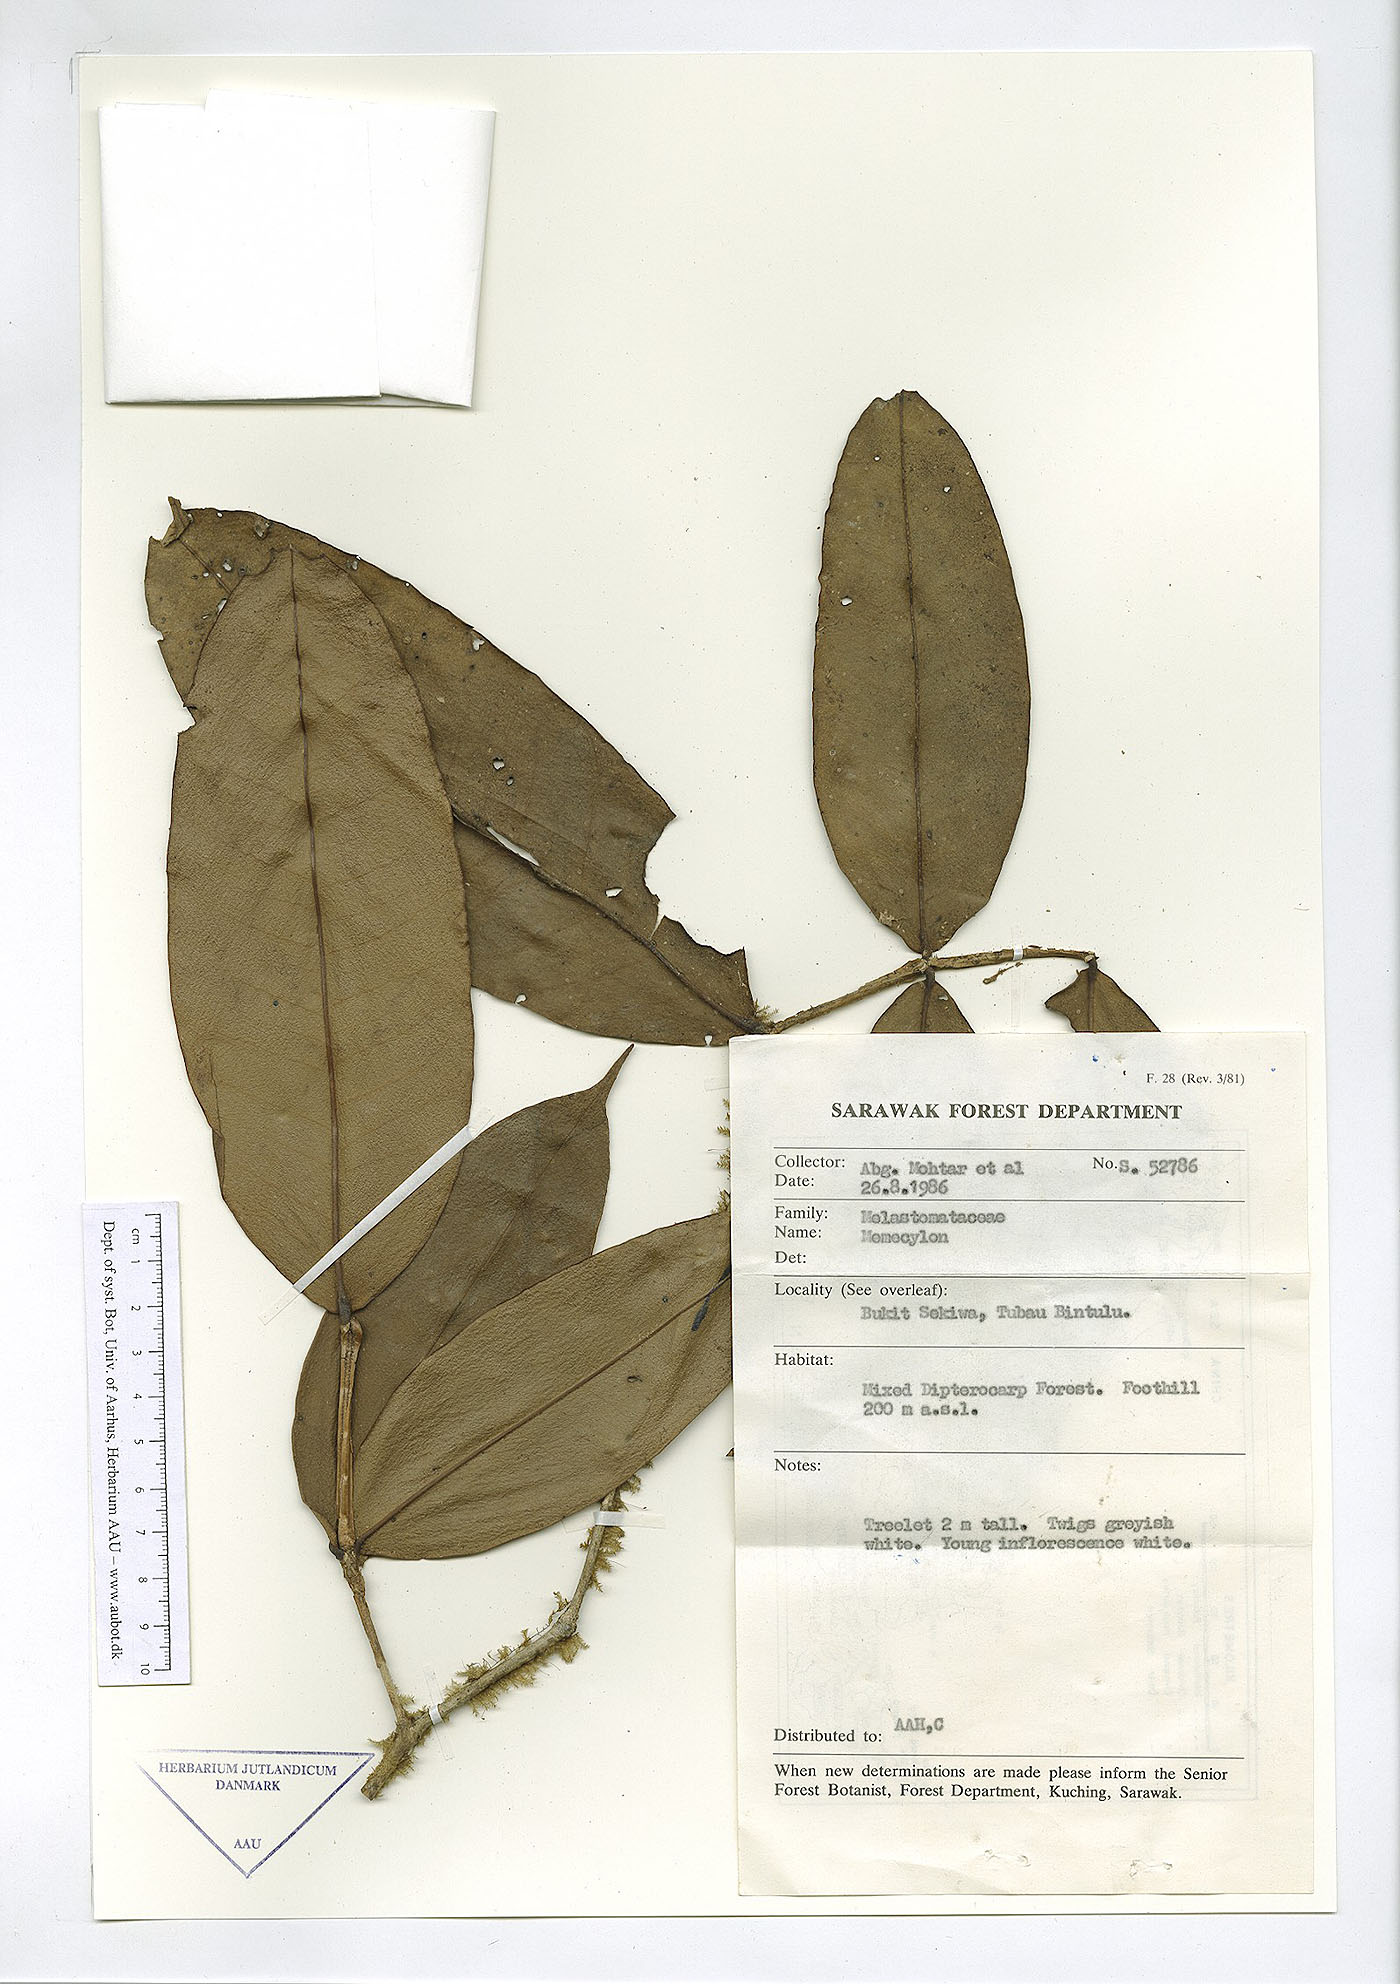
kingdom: Plantae
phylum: Tracheophyta
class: Magnoliopsida
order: Myrtales
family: Melastomataceae
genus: Memecylon
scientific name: Memecylon
